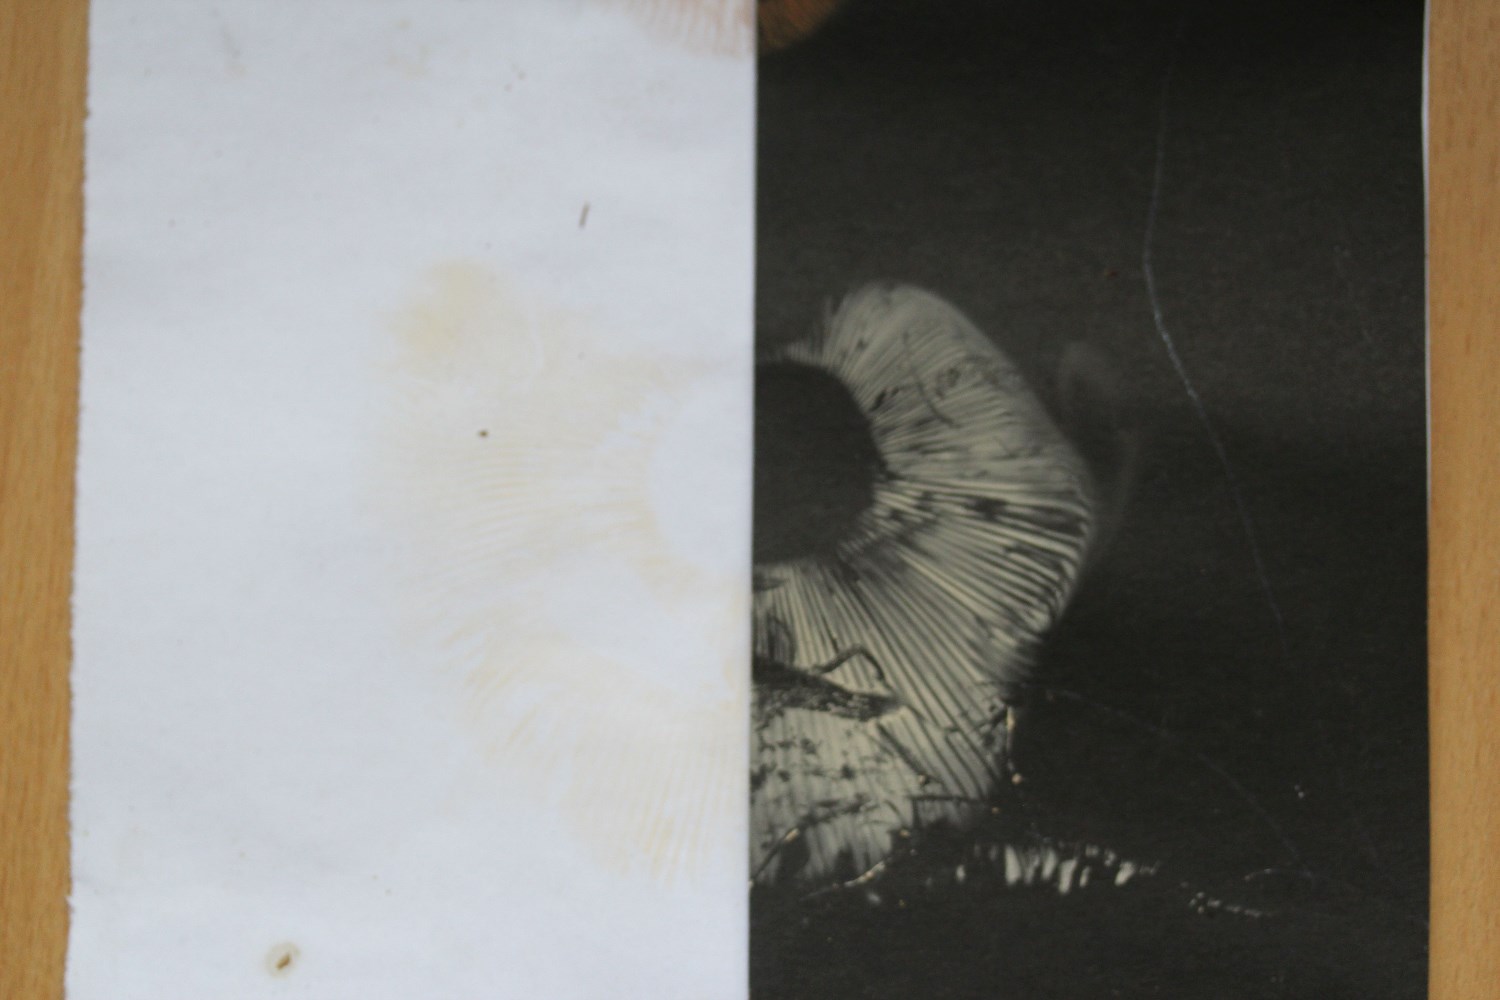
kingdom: Fungi
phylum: Basidiomycota
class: Agaricomycetes
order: Russulales
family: Russulaceae
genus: Russula
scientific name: Russula
